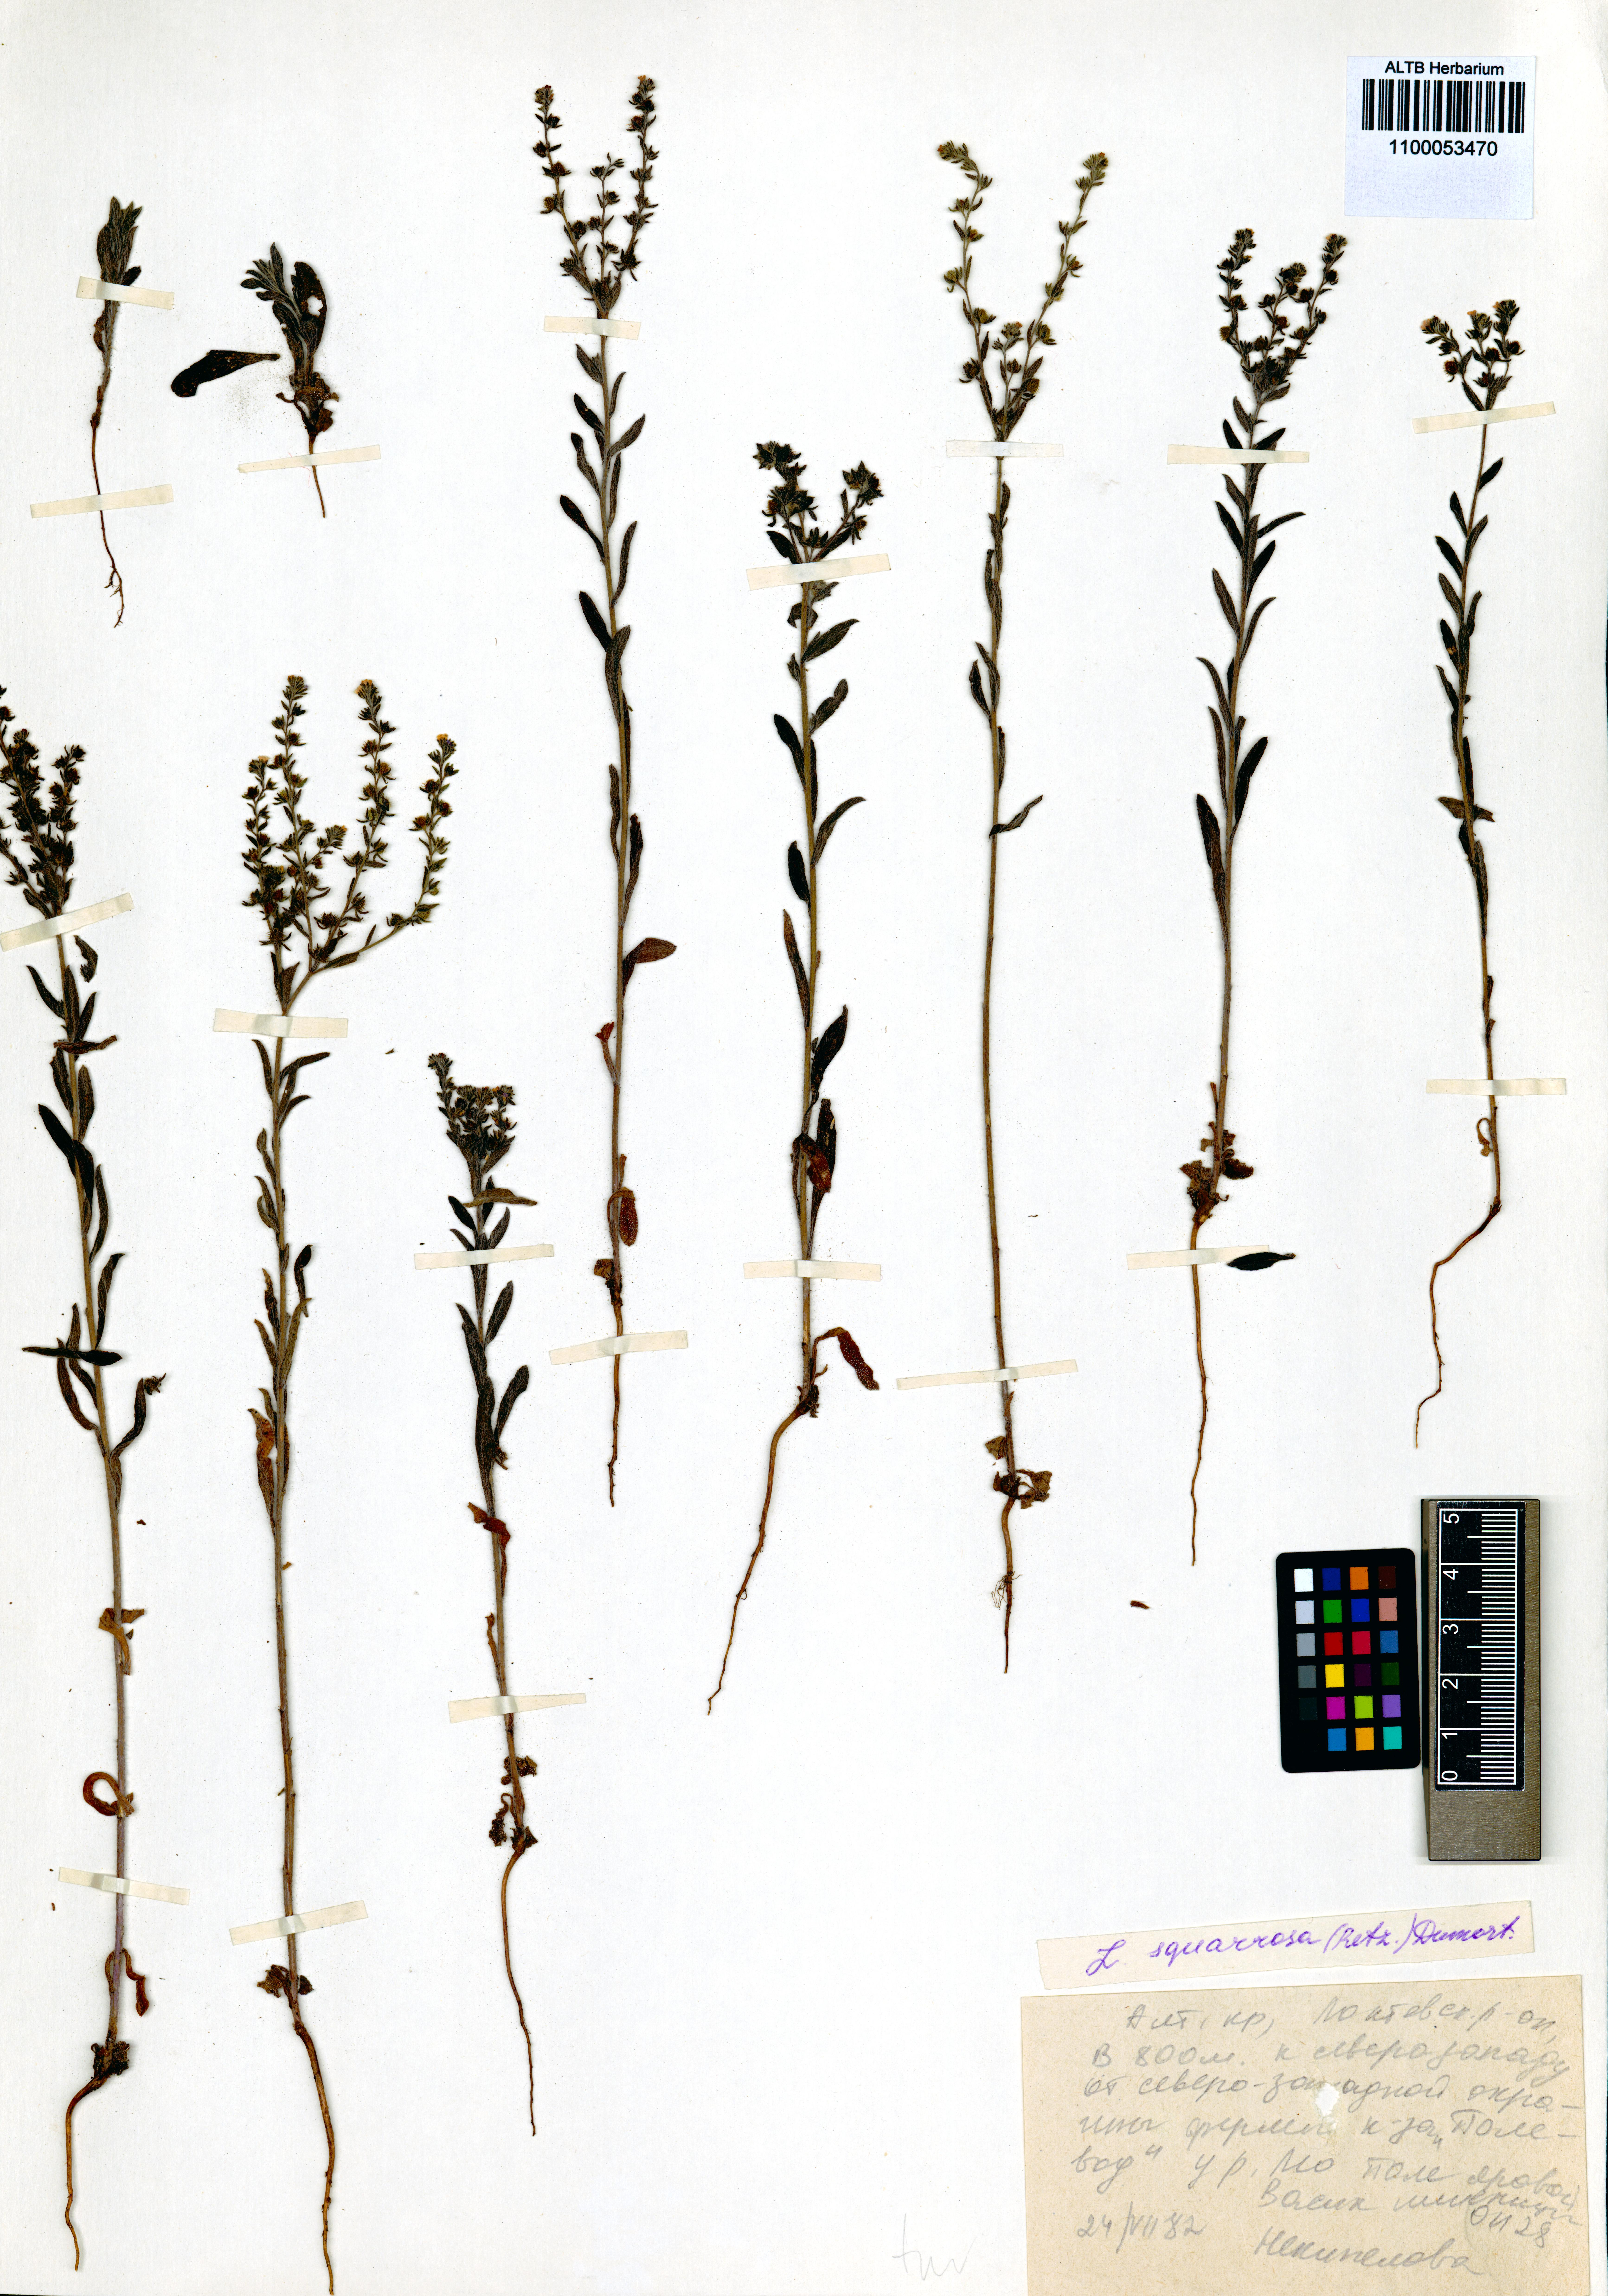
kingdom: Plantae
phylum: Tracheophyta
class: Magnoliopsida
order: Boraginales
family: Boraginaceae
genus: Lappula
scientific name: Lappula squarrosa
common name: European stickseed
